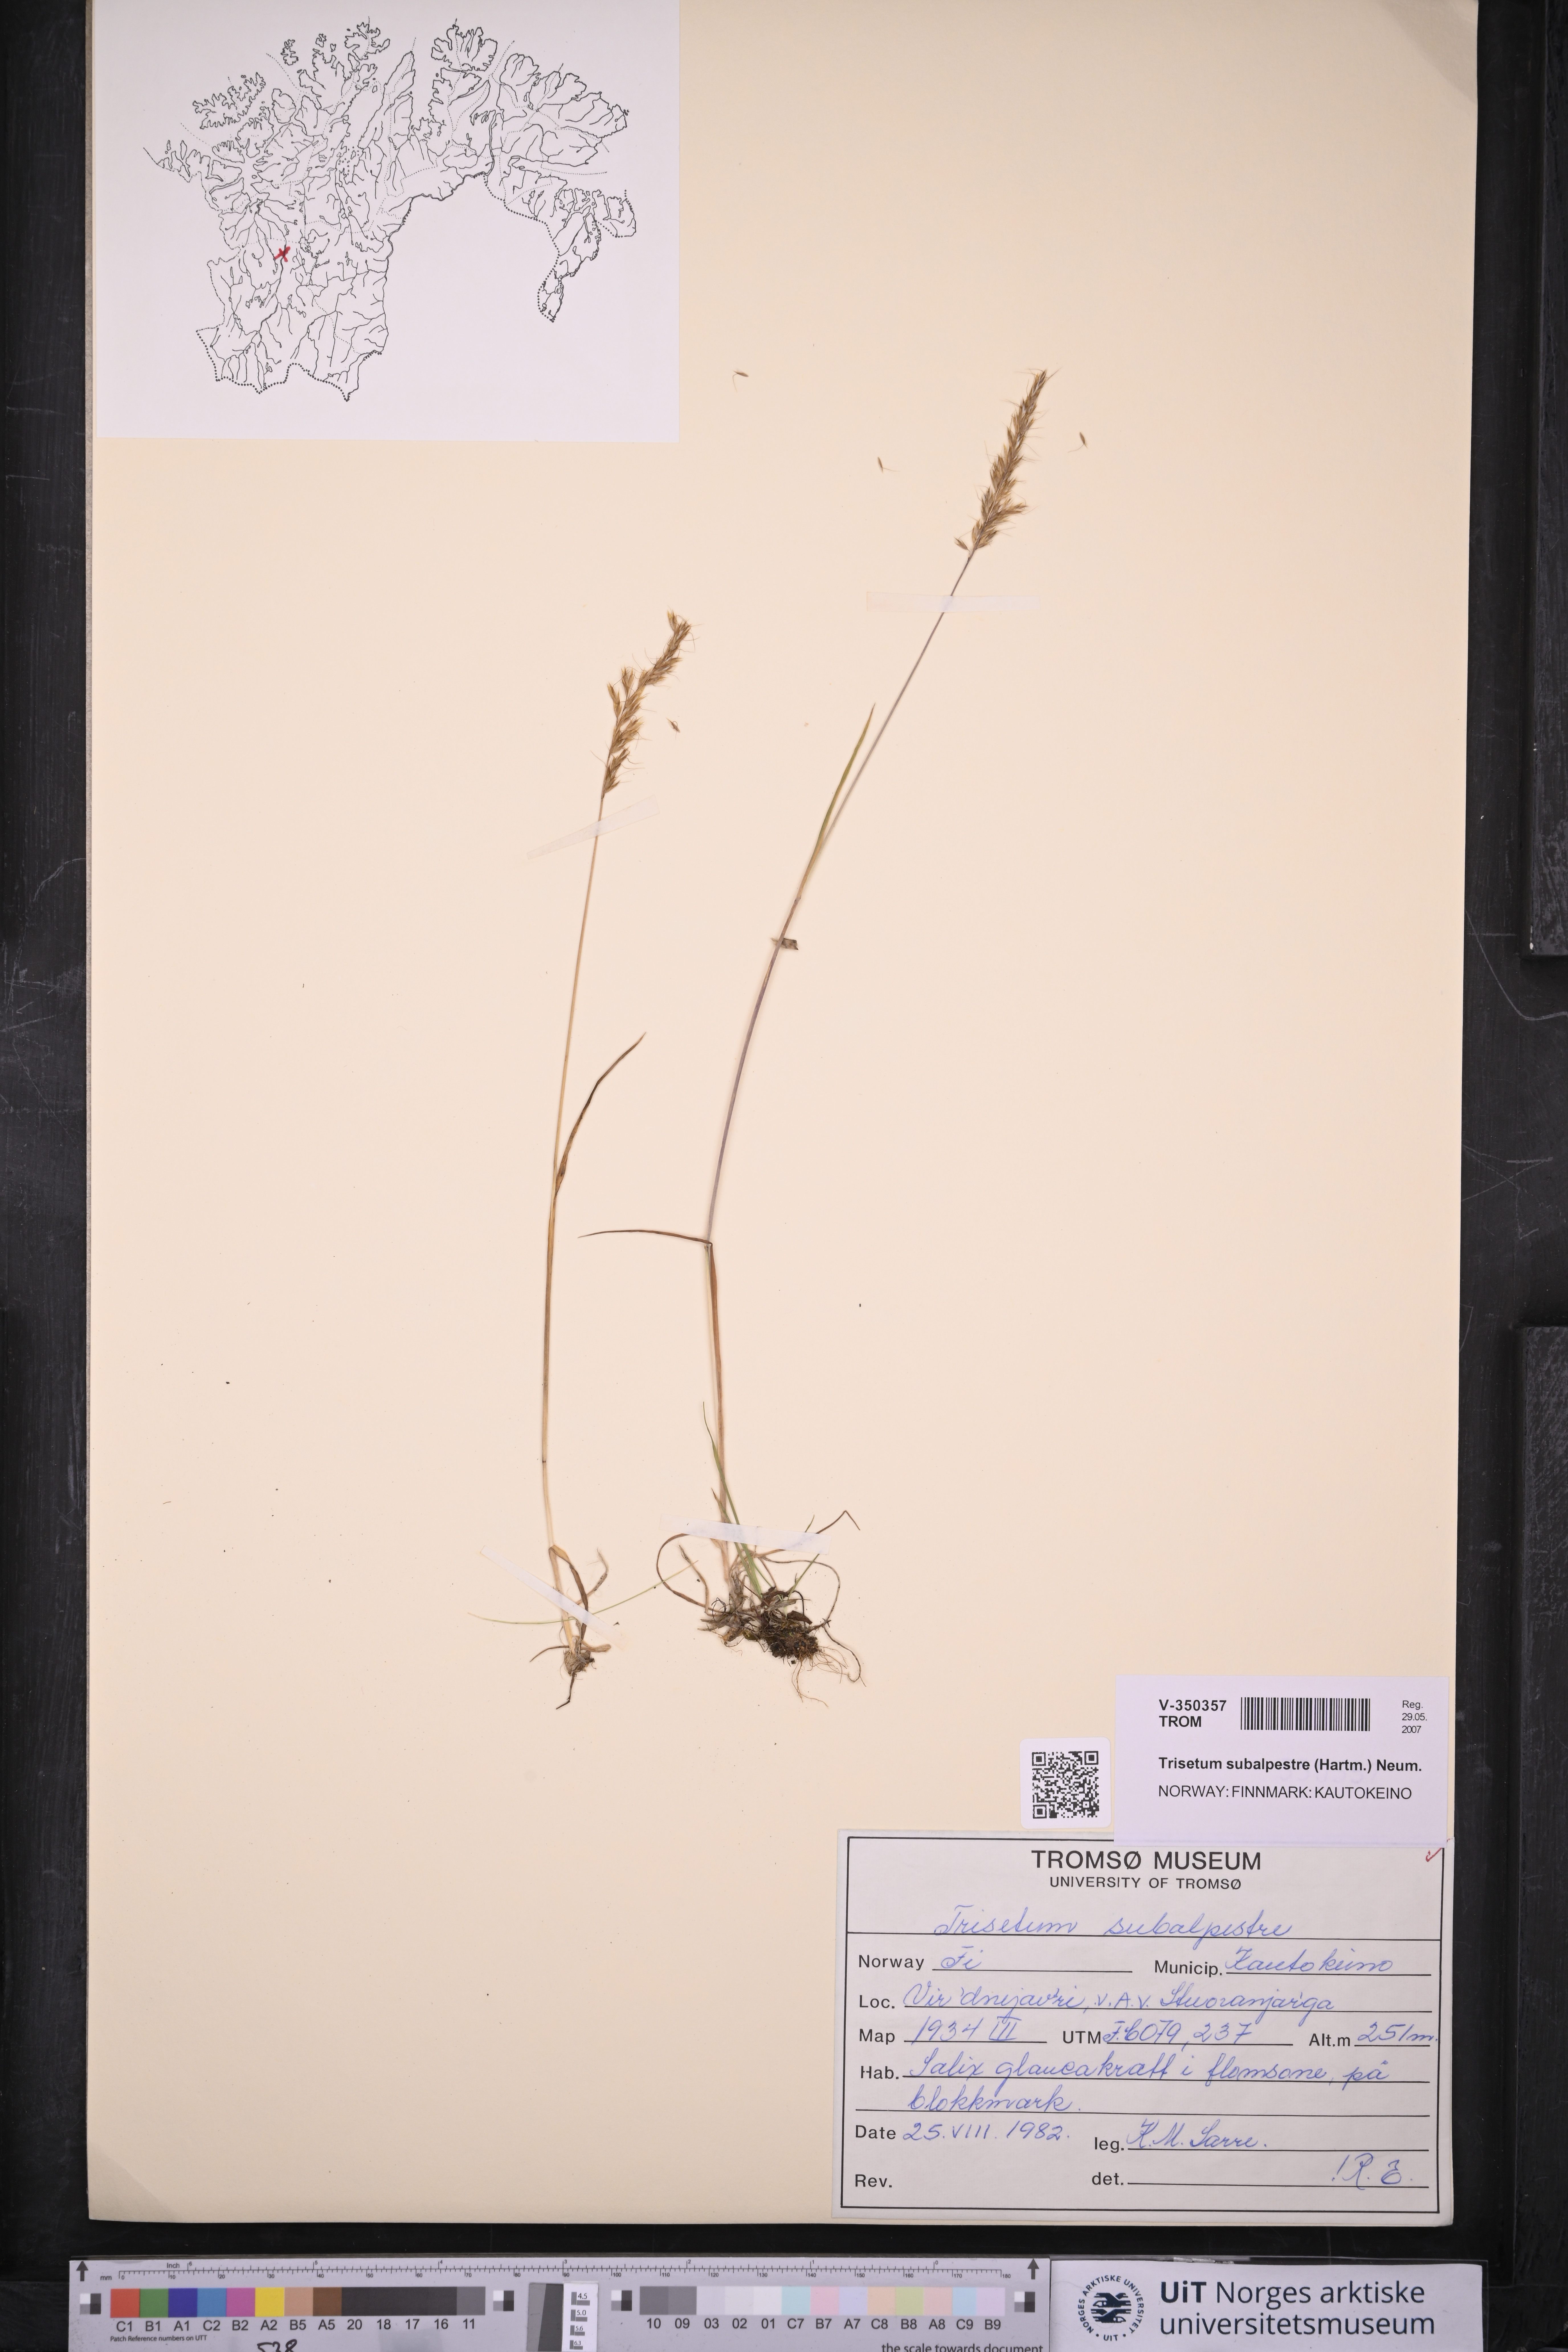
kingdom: Plantae
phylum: Tracheophyta
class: Liliopsida
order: Poales
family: Poaceae
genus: Koeleria
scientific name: Koeleria subalpestris
